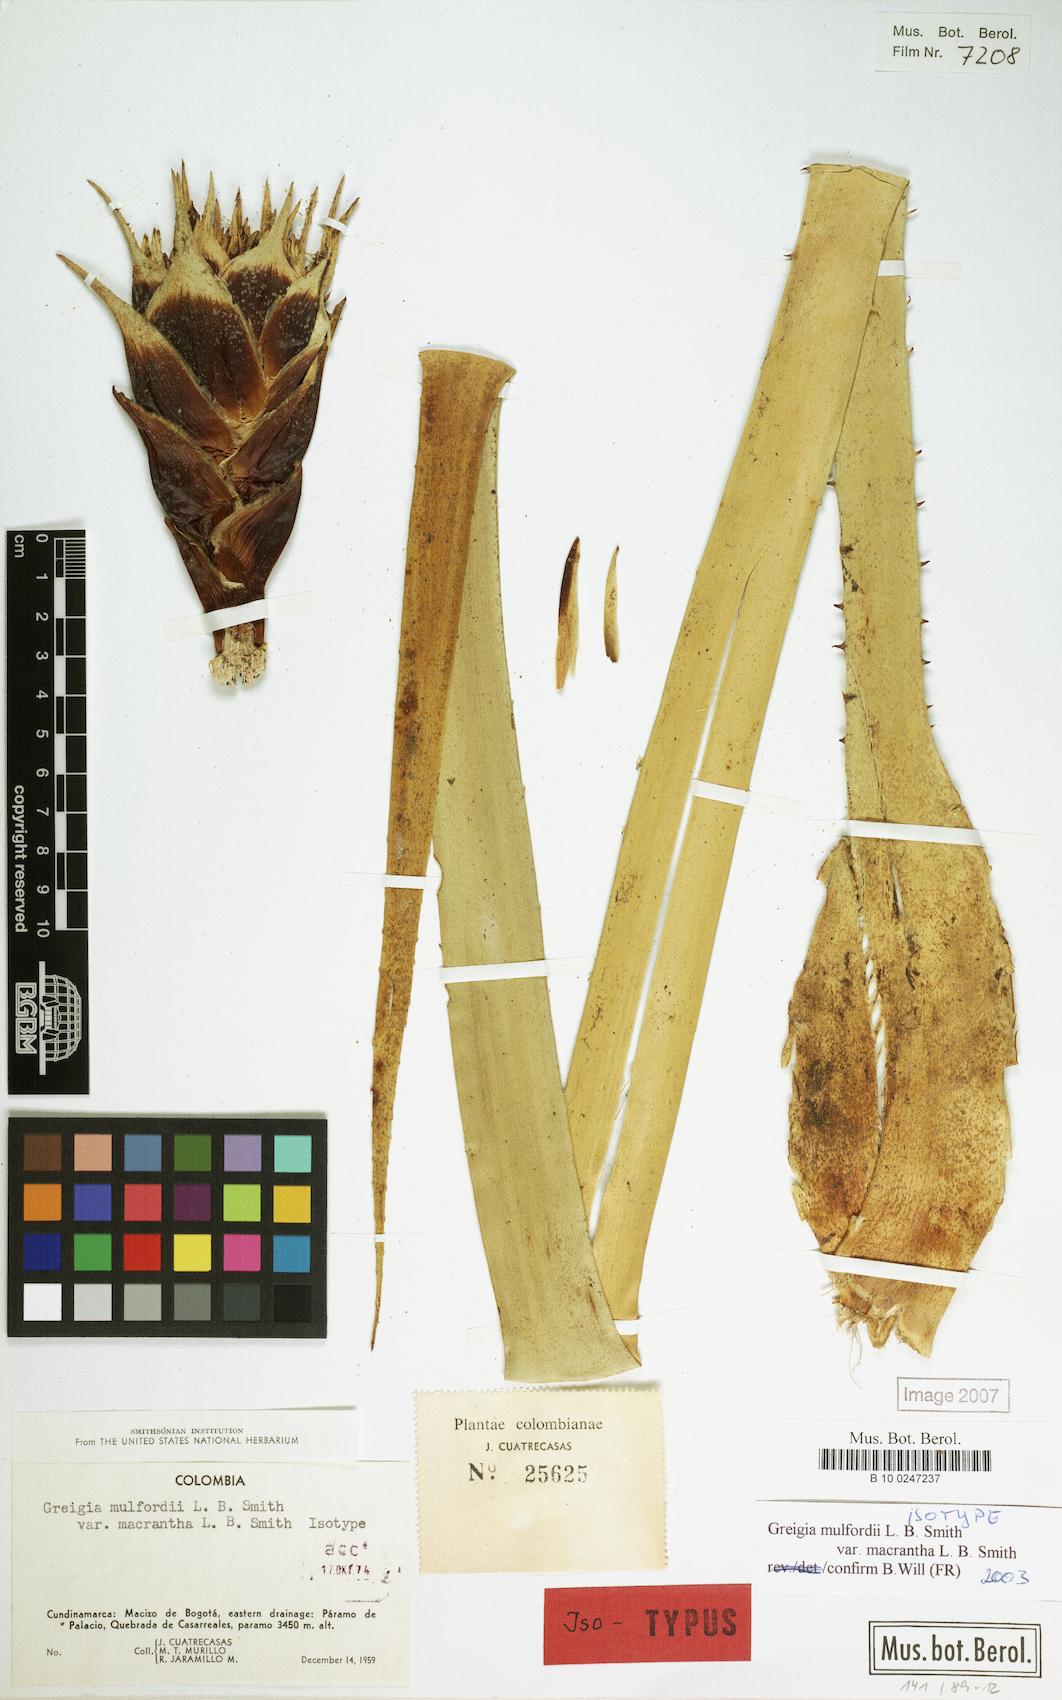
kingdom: Plantae
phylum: Tracheophyta
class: Liliopsida
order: Poales
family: Bromeliaceae
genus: Greigia
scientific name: Greigia mulfordii
